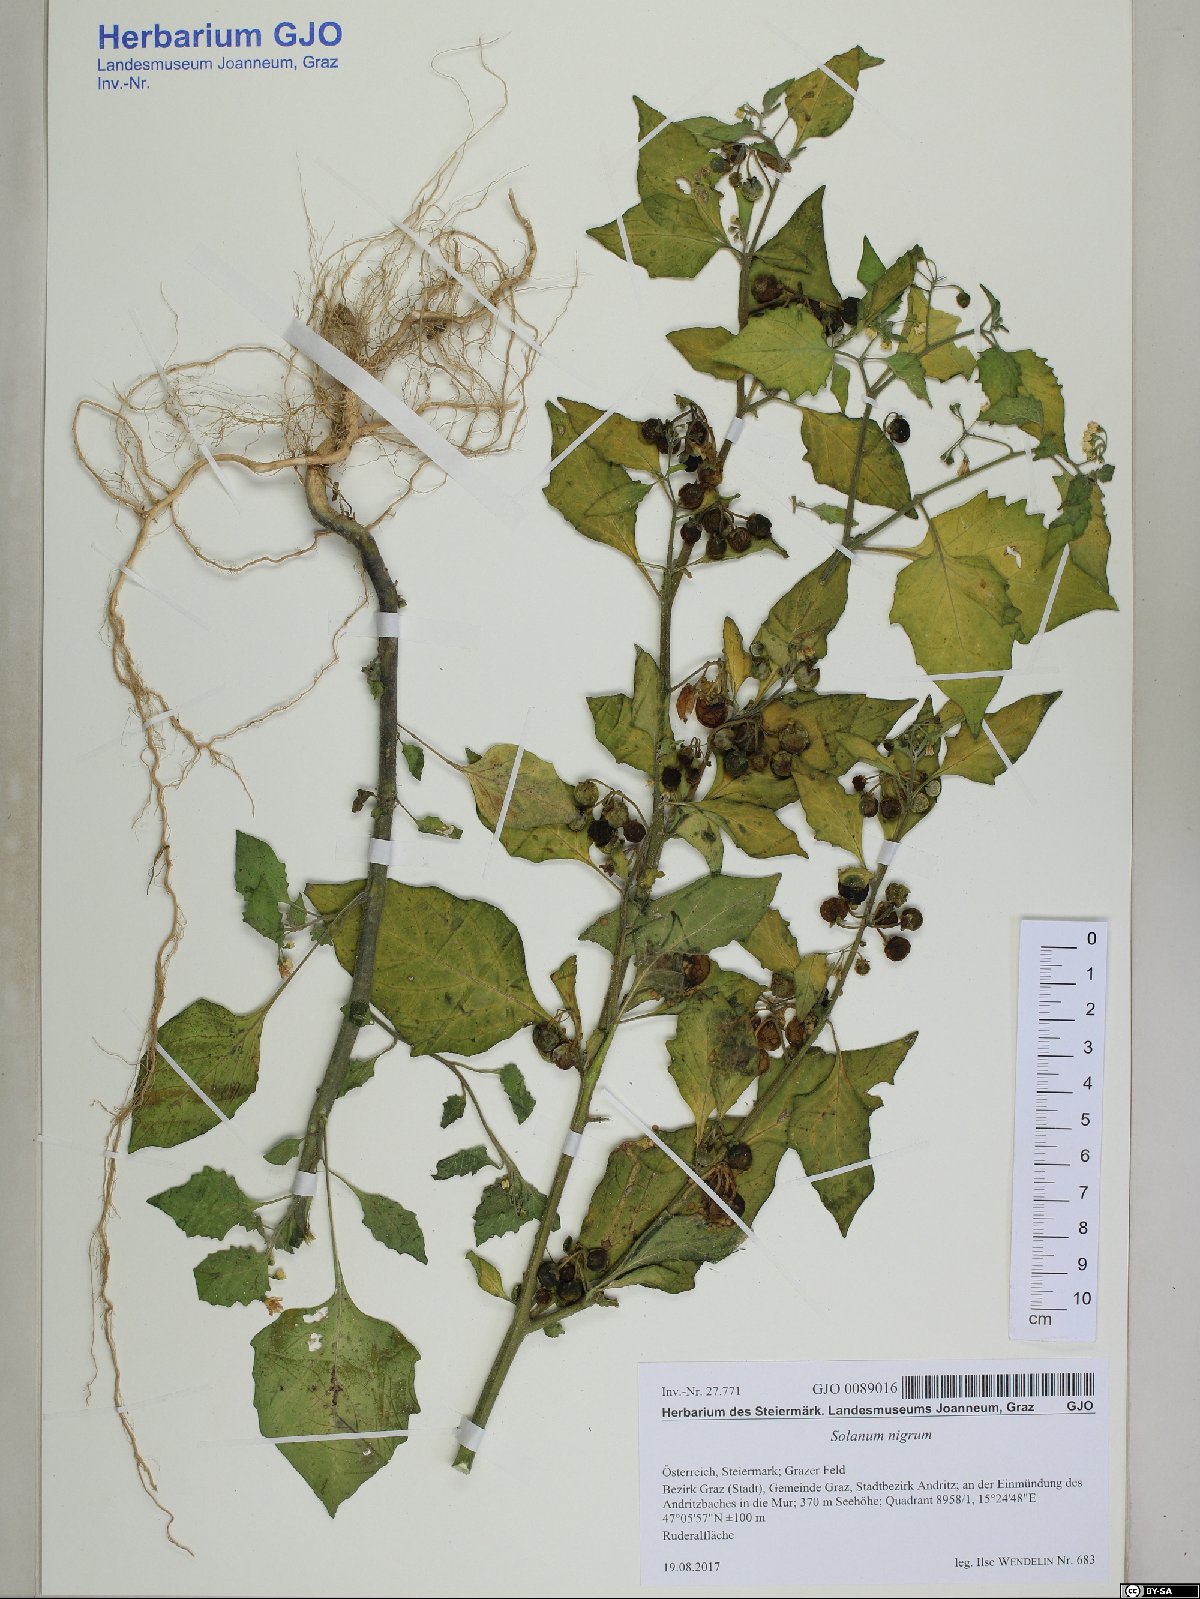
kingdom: Plantae
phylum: Tracheophyta
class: Magnoliopsida
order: Solanales
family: Solanaceae
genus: Solanum
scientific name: Solanum nigrum
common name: Black nightshade
